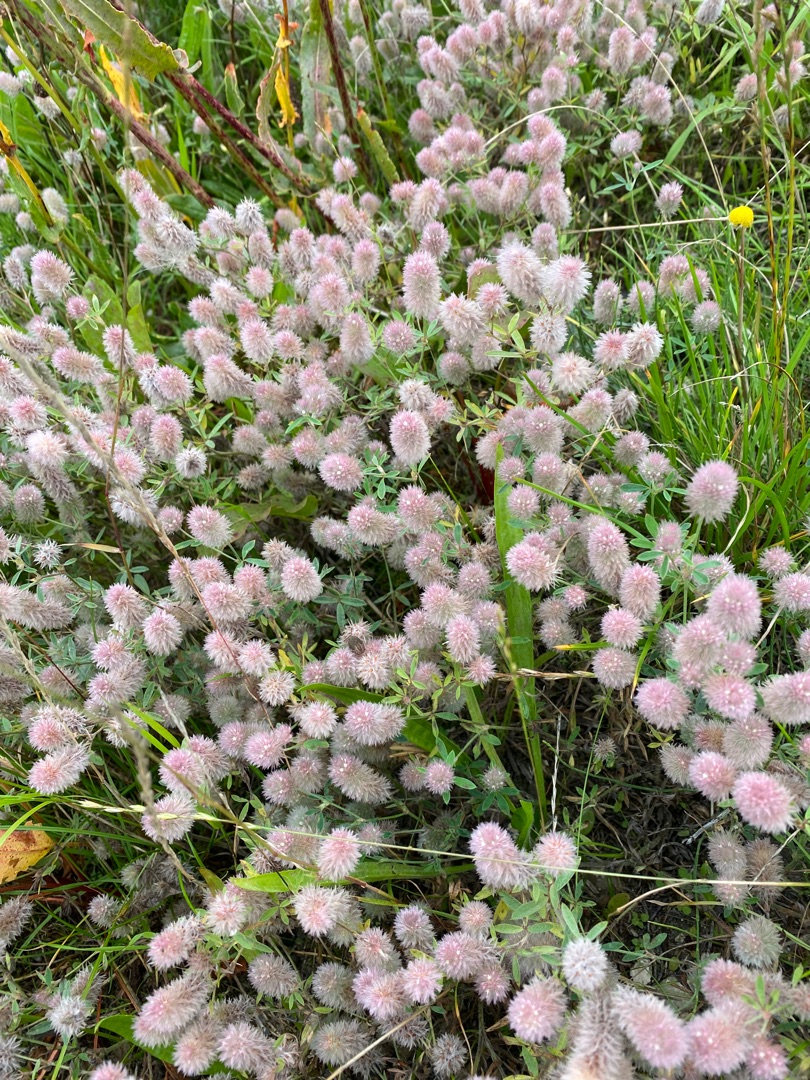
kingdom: Plantae
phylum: Tracheophyta
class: Magnoliopsida
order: Fabales
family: Fabaceae
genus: Trifolium
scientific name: Trifolium arvense
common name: Hare-kløver
